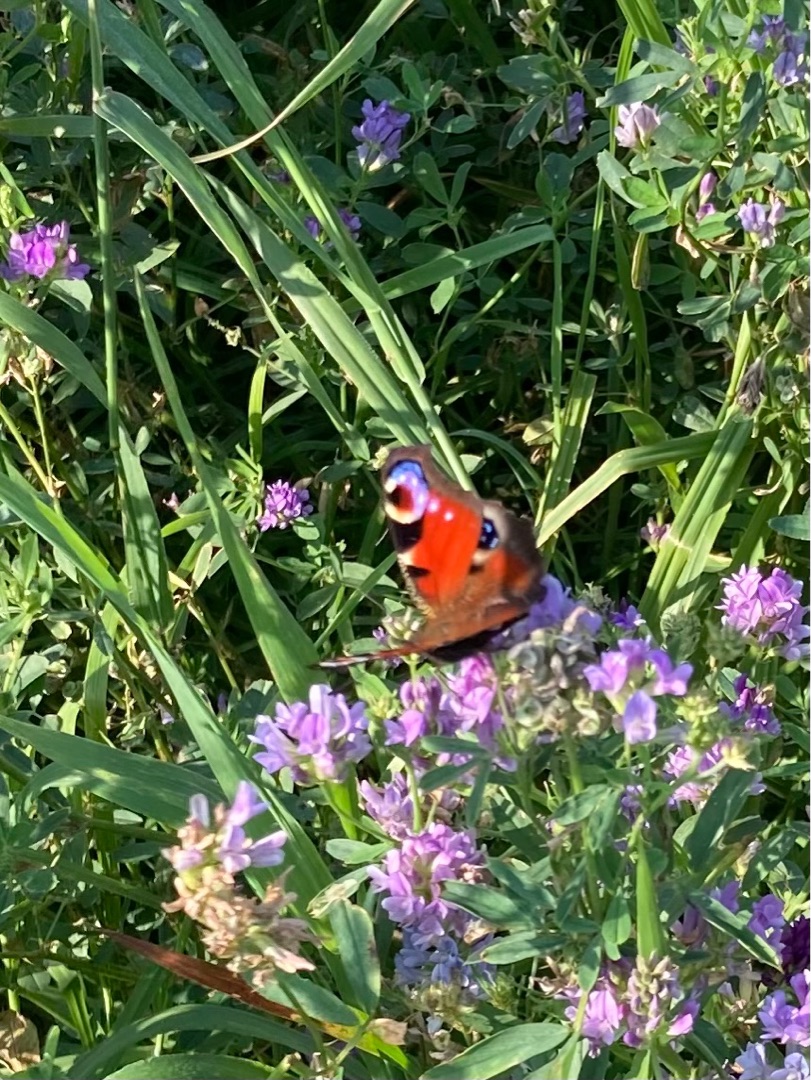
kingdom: Animalia
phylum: Arthropoda
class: Insecta
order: Lepidoptera
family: Nymphalidae
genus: Aglais
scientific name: Aglais io
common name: Dagpåfugleøje
